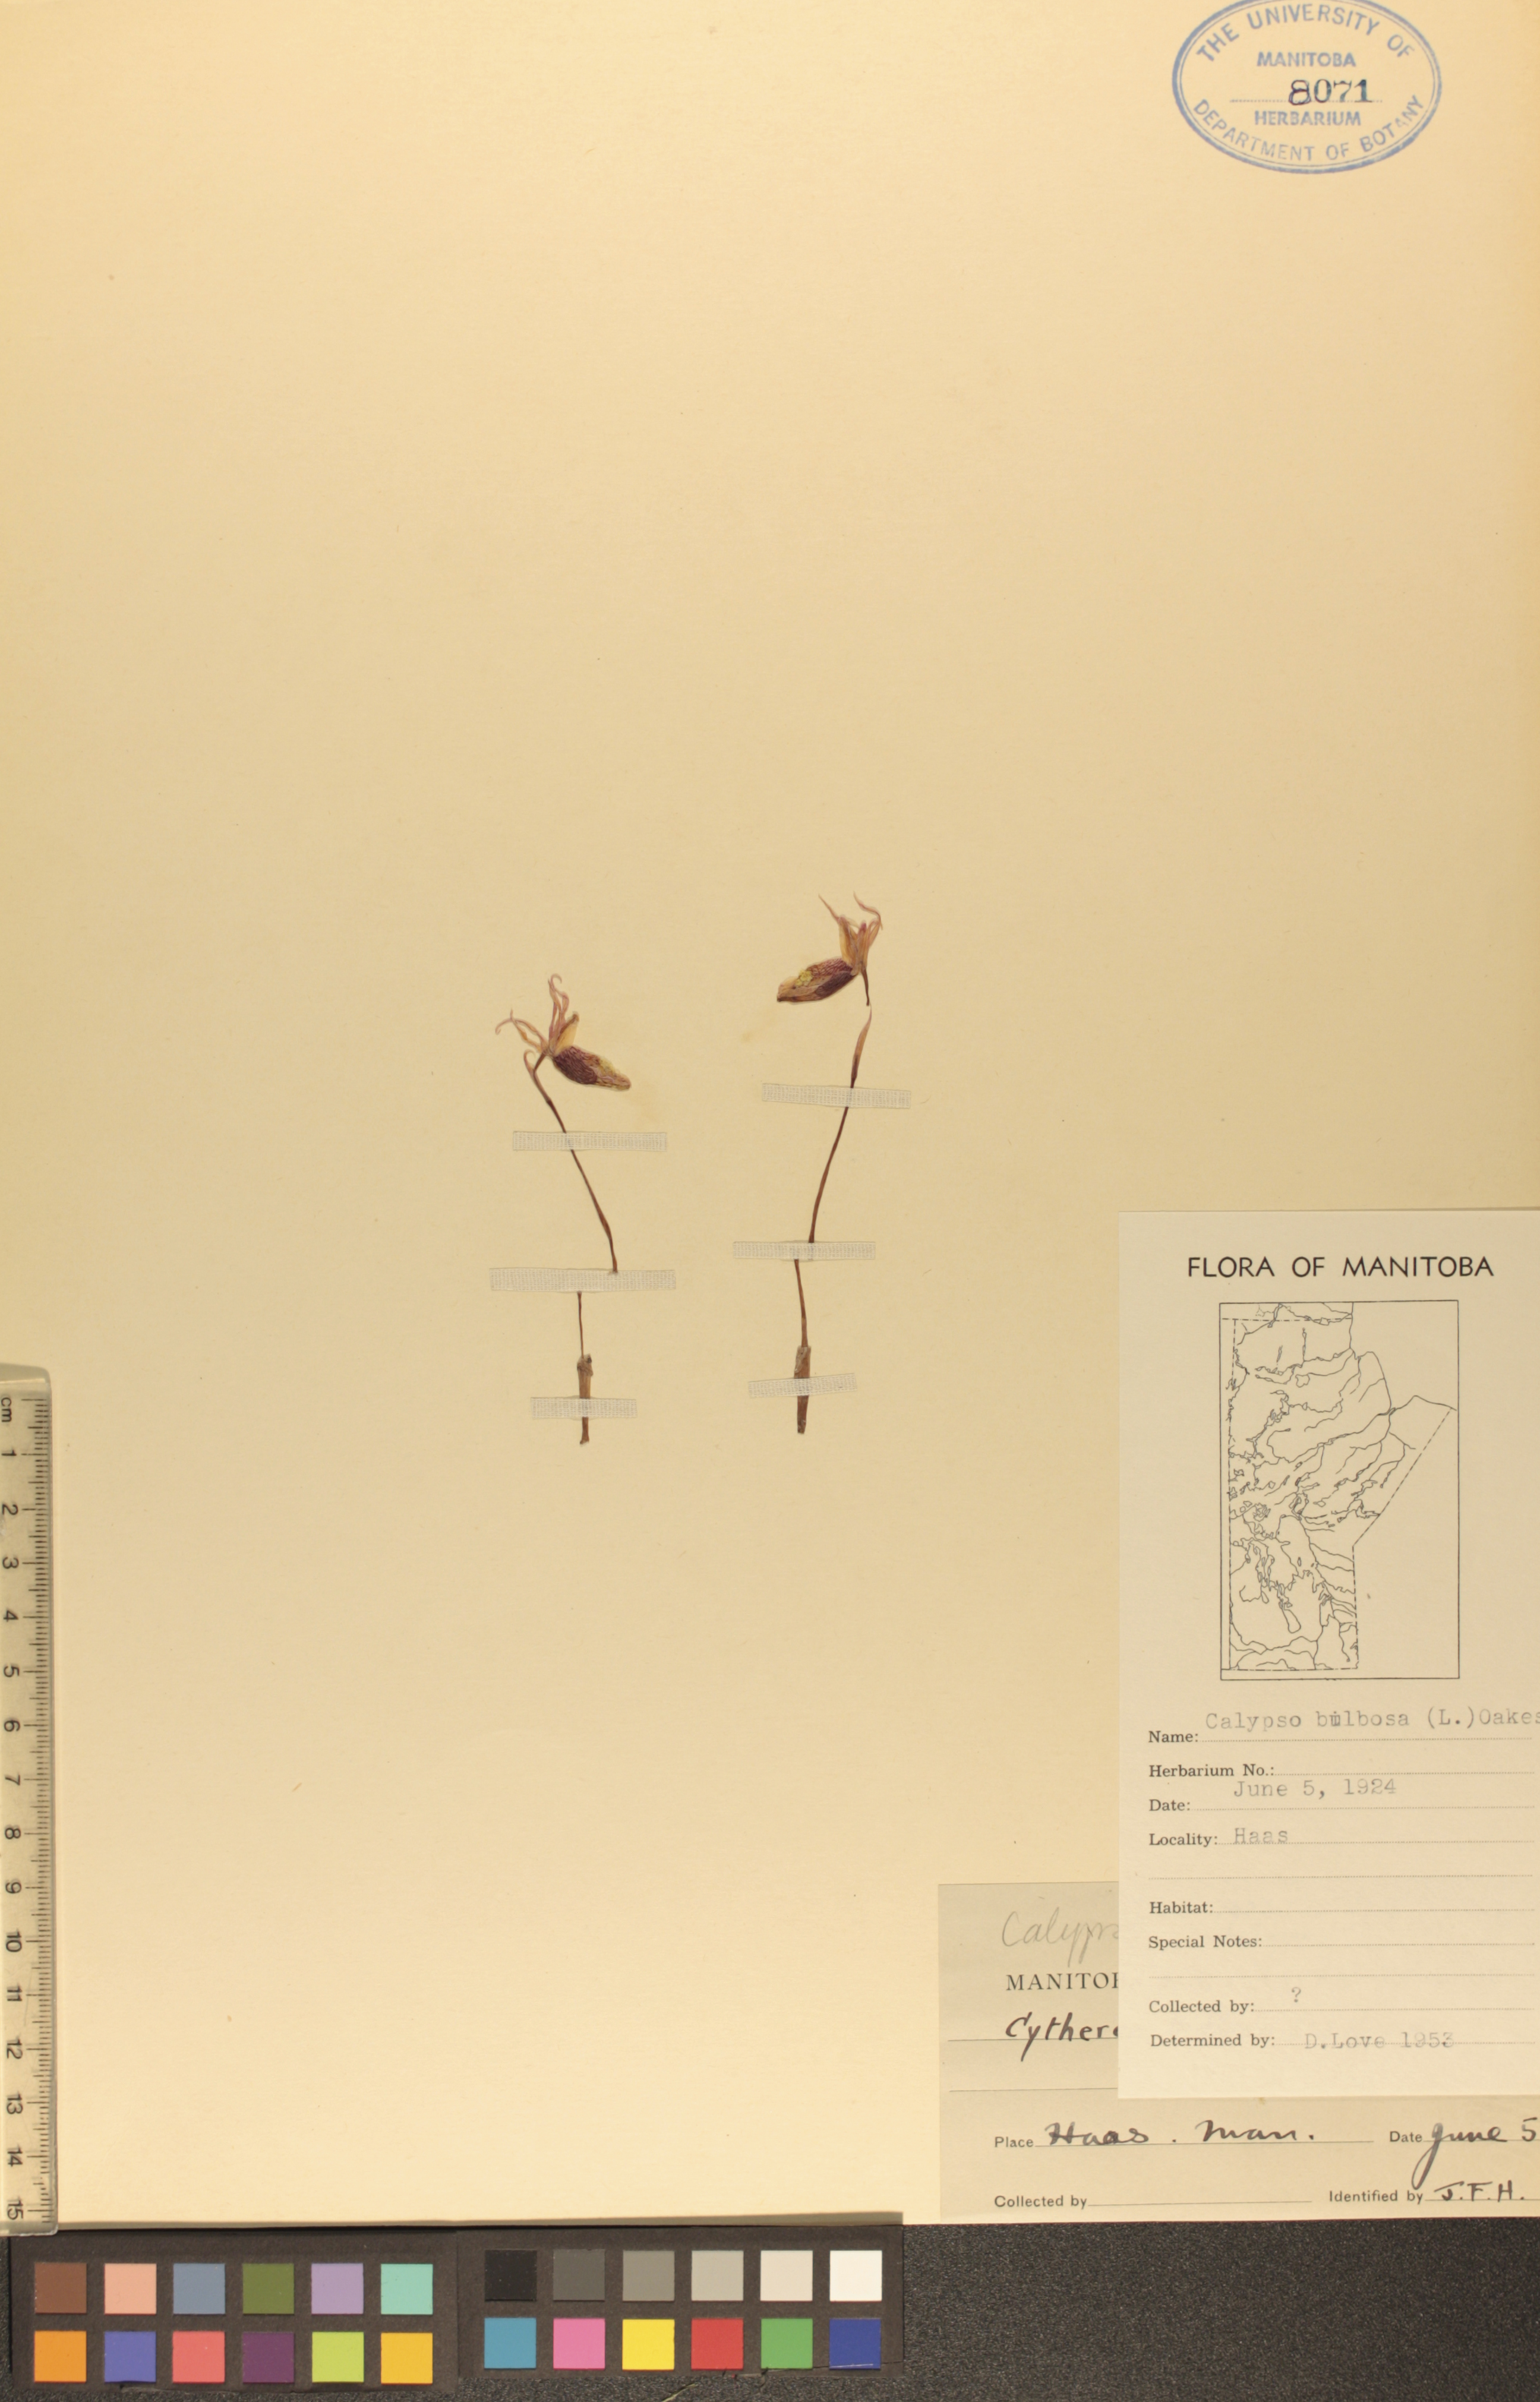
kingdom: Plantae
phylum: Tracheophyta
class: Liliopsida
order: Asparagales
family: Orchidaceae
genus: Calypso
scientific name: Calypso bulbosa
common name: Calypso
